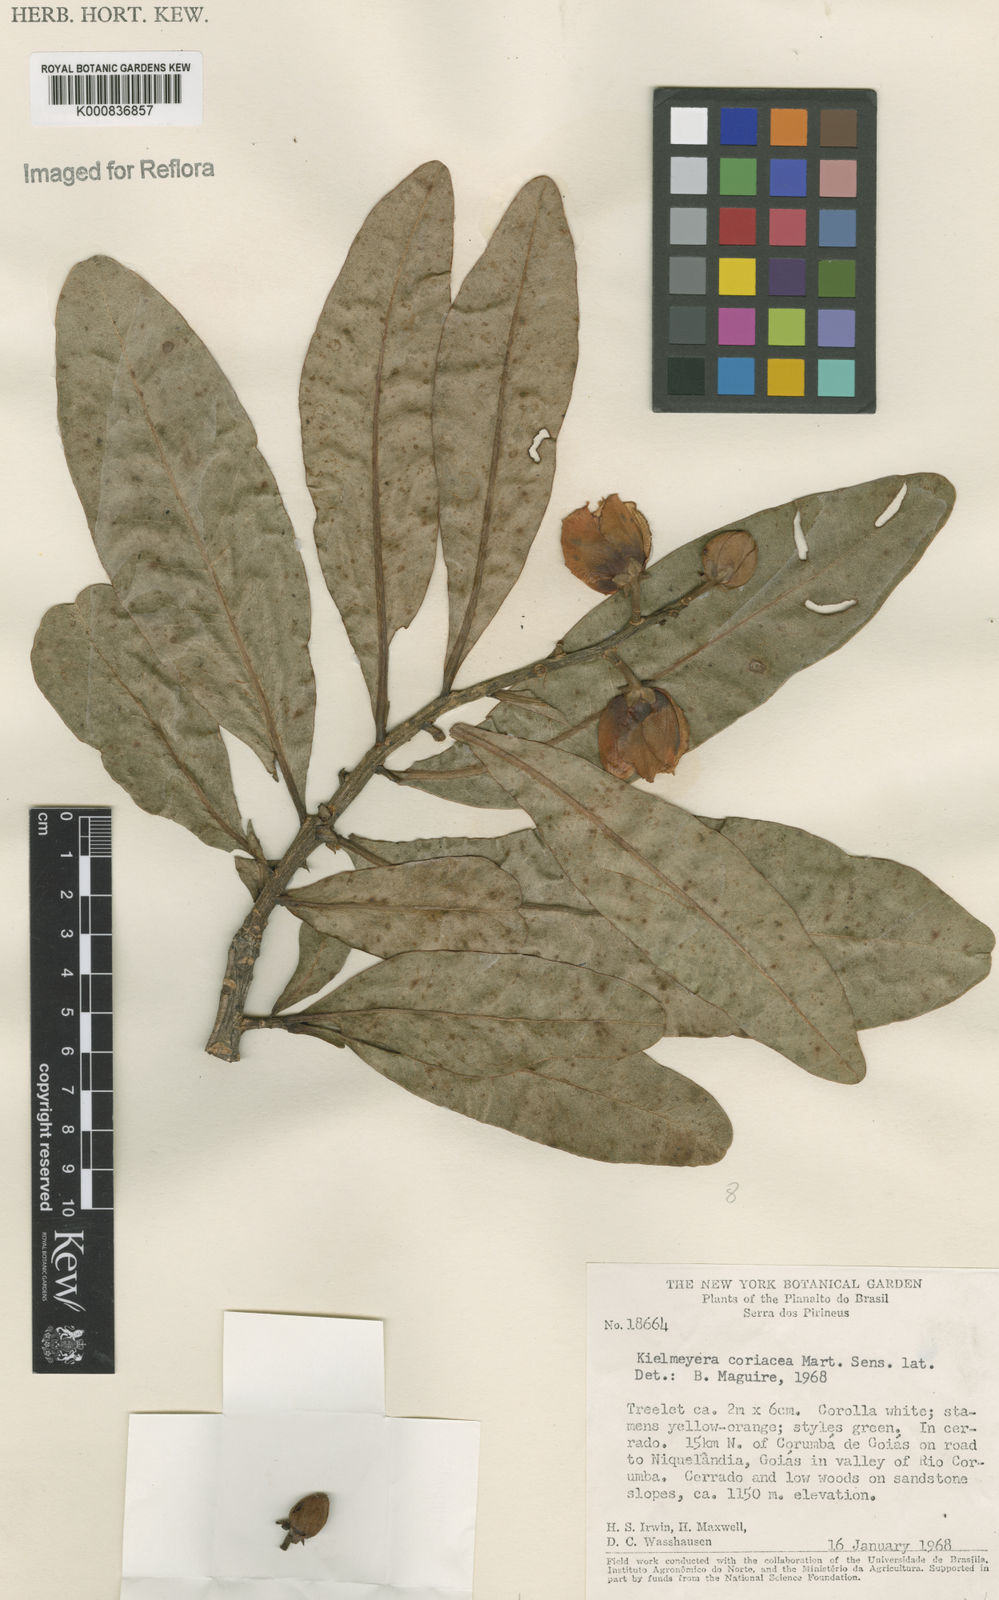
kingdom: Plantae
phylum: Tracheophyta
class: Magnoliopsida
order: Malpighiales
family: Calophyllaceae
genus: Kielmeyera
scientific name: Kielmeyera coriacea
